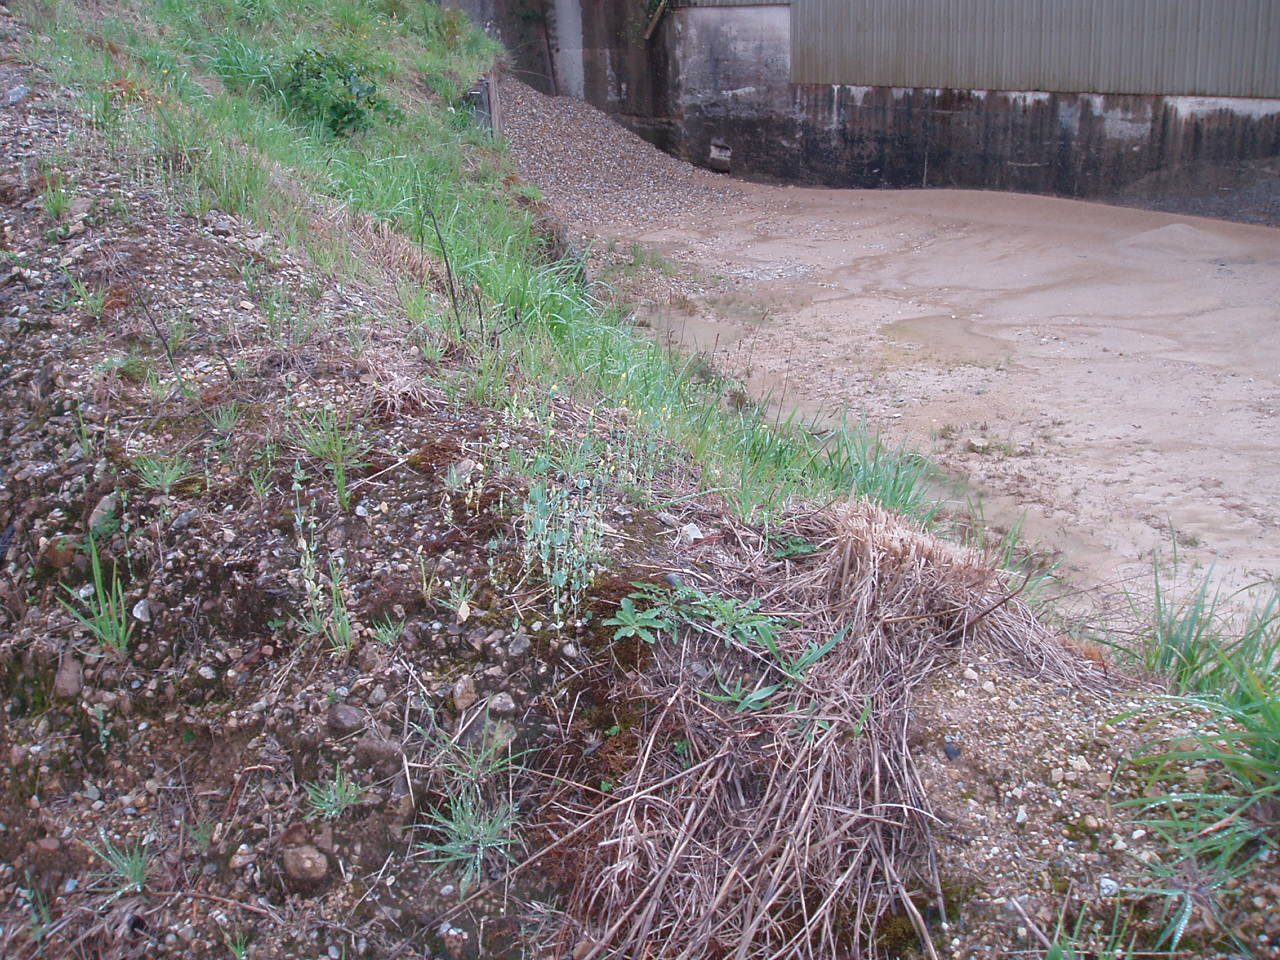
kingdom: Plantae
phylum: Tracheophyta
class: Magnoliopsida
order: Gentianales
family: Gentianaceae
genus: Blackstonia
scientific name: Blackstonia perfoliata
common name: Yellow-wort
